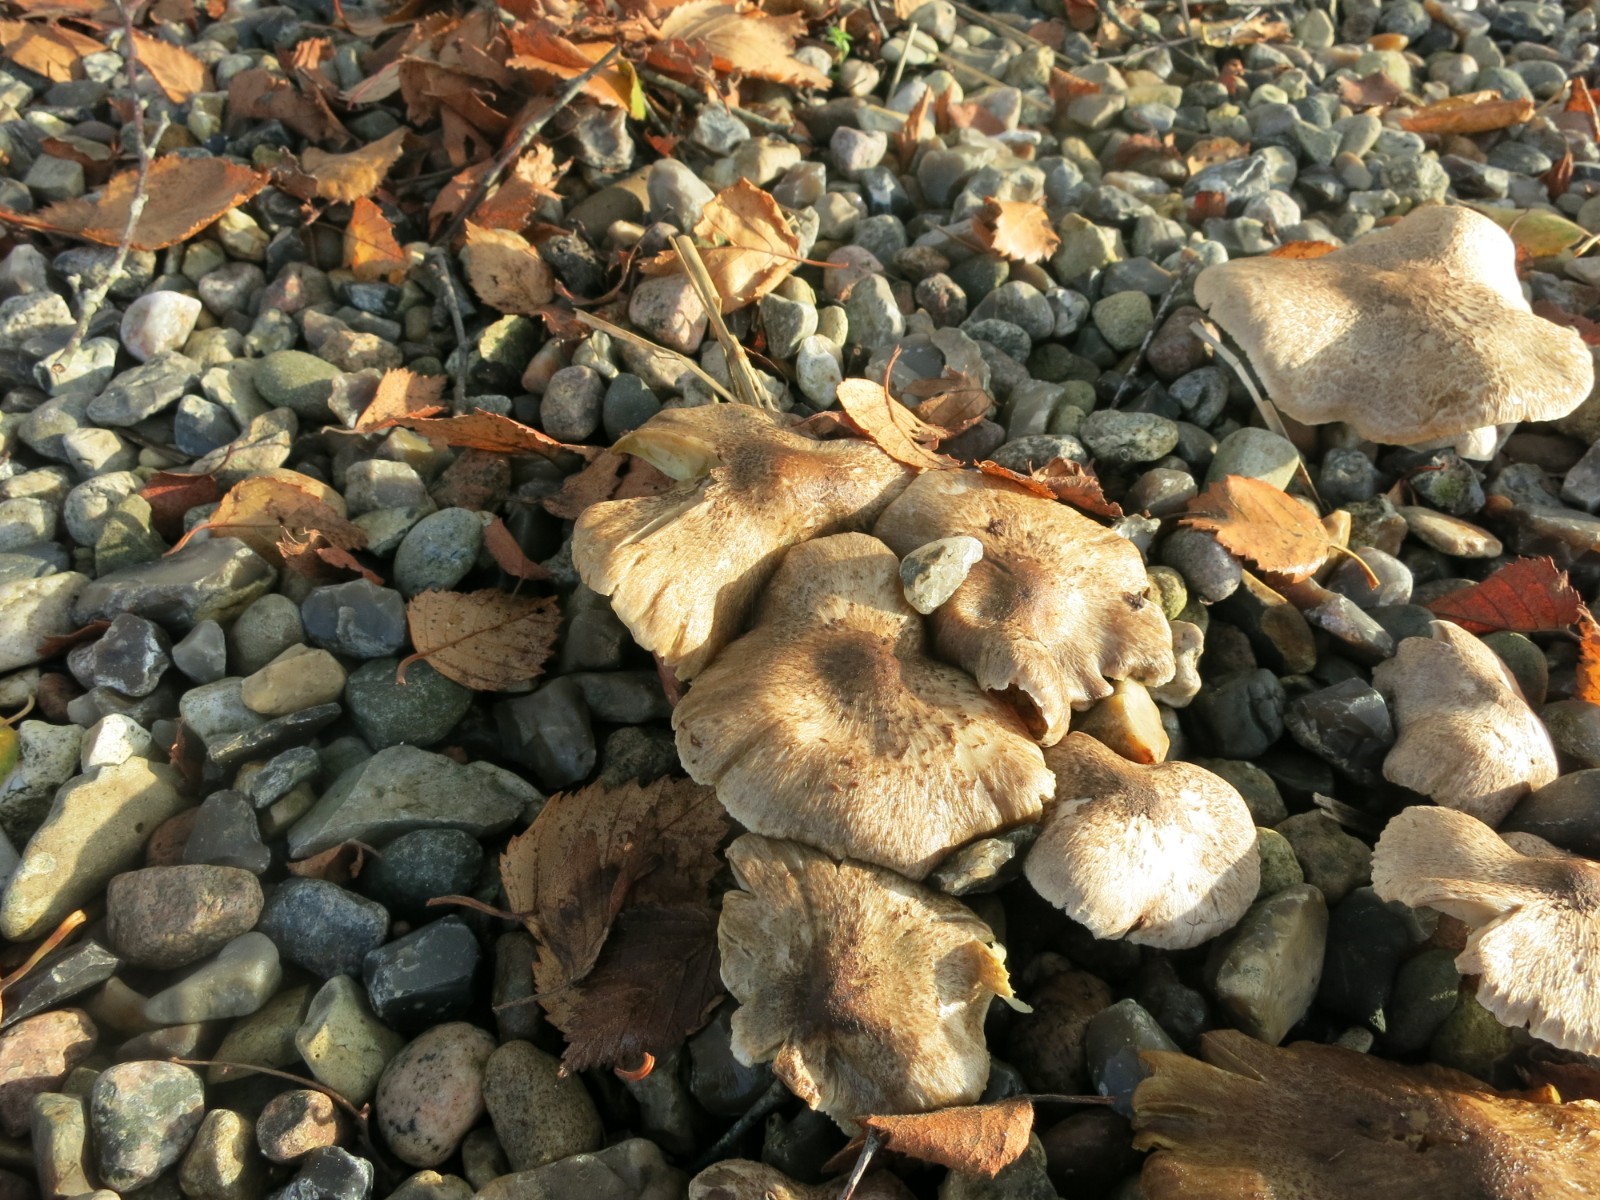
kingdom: Fungi
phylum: Basidiomycota
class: Agaricomycetes
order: Agaricales
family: Tricholomataceae
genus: Tricholoma
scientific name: Tricholoma
